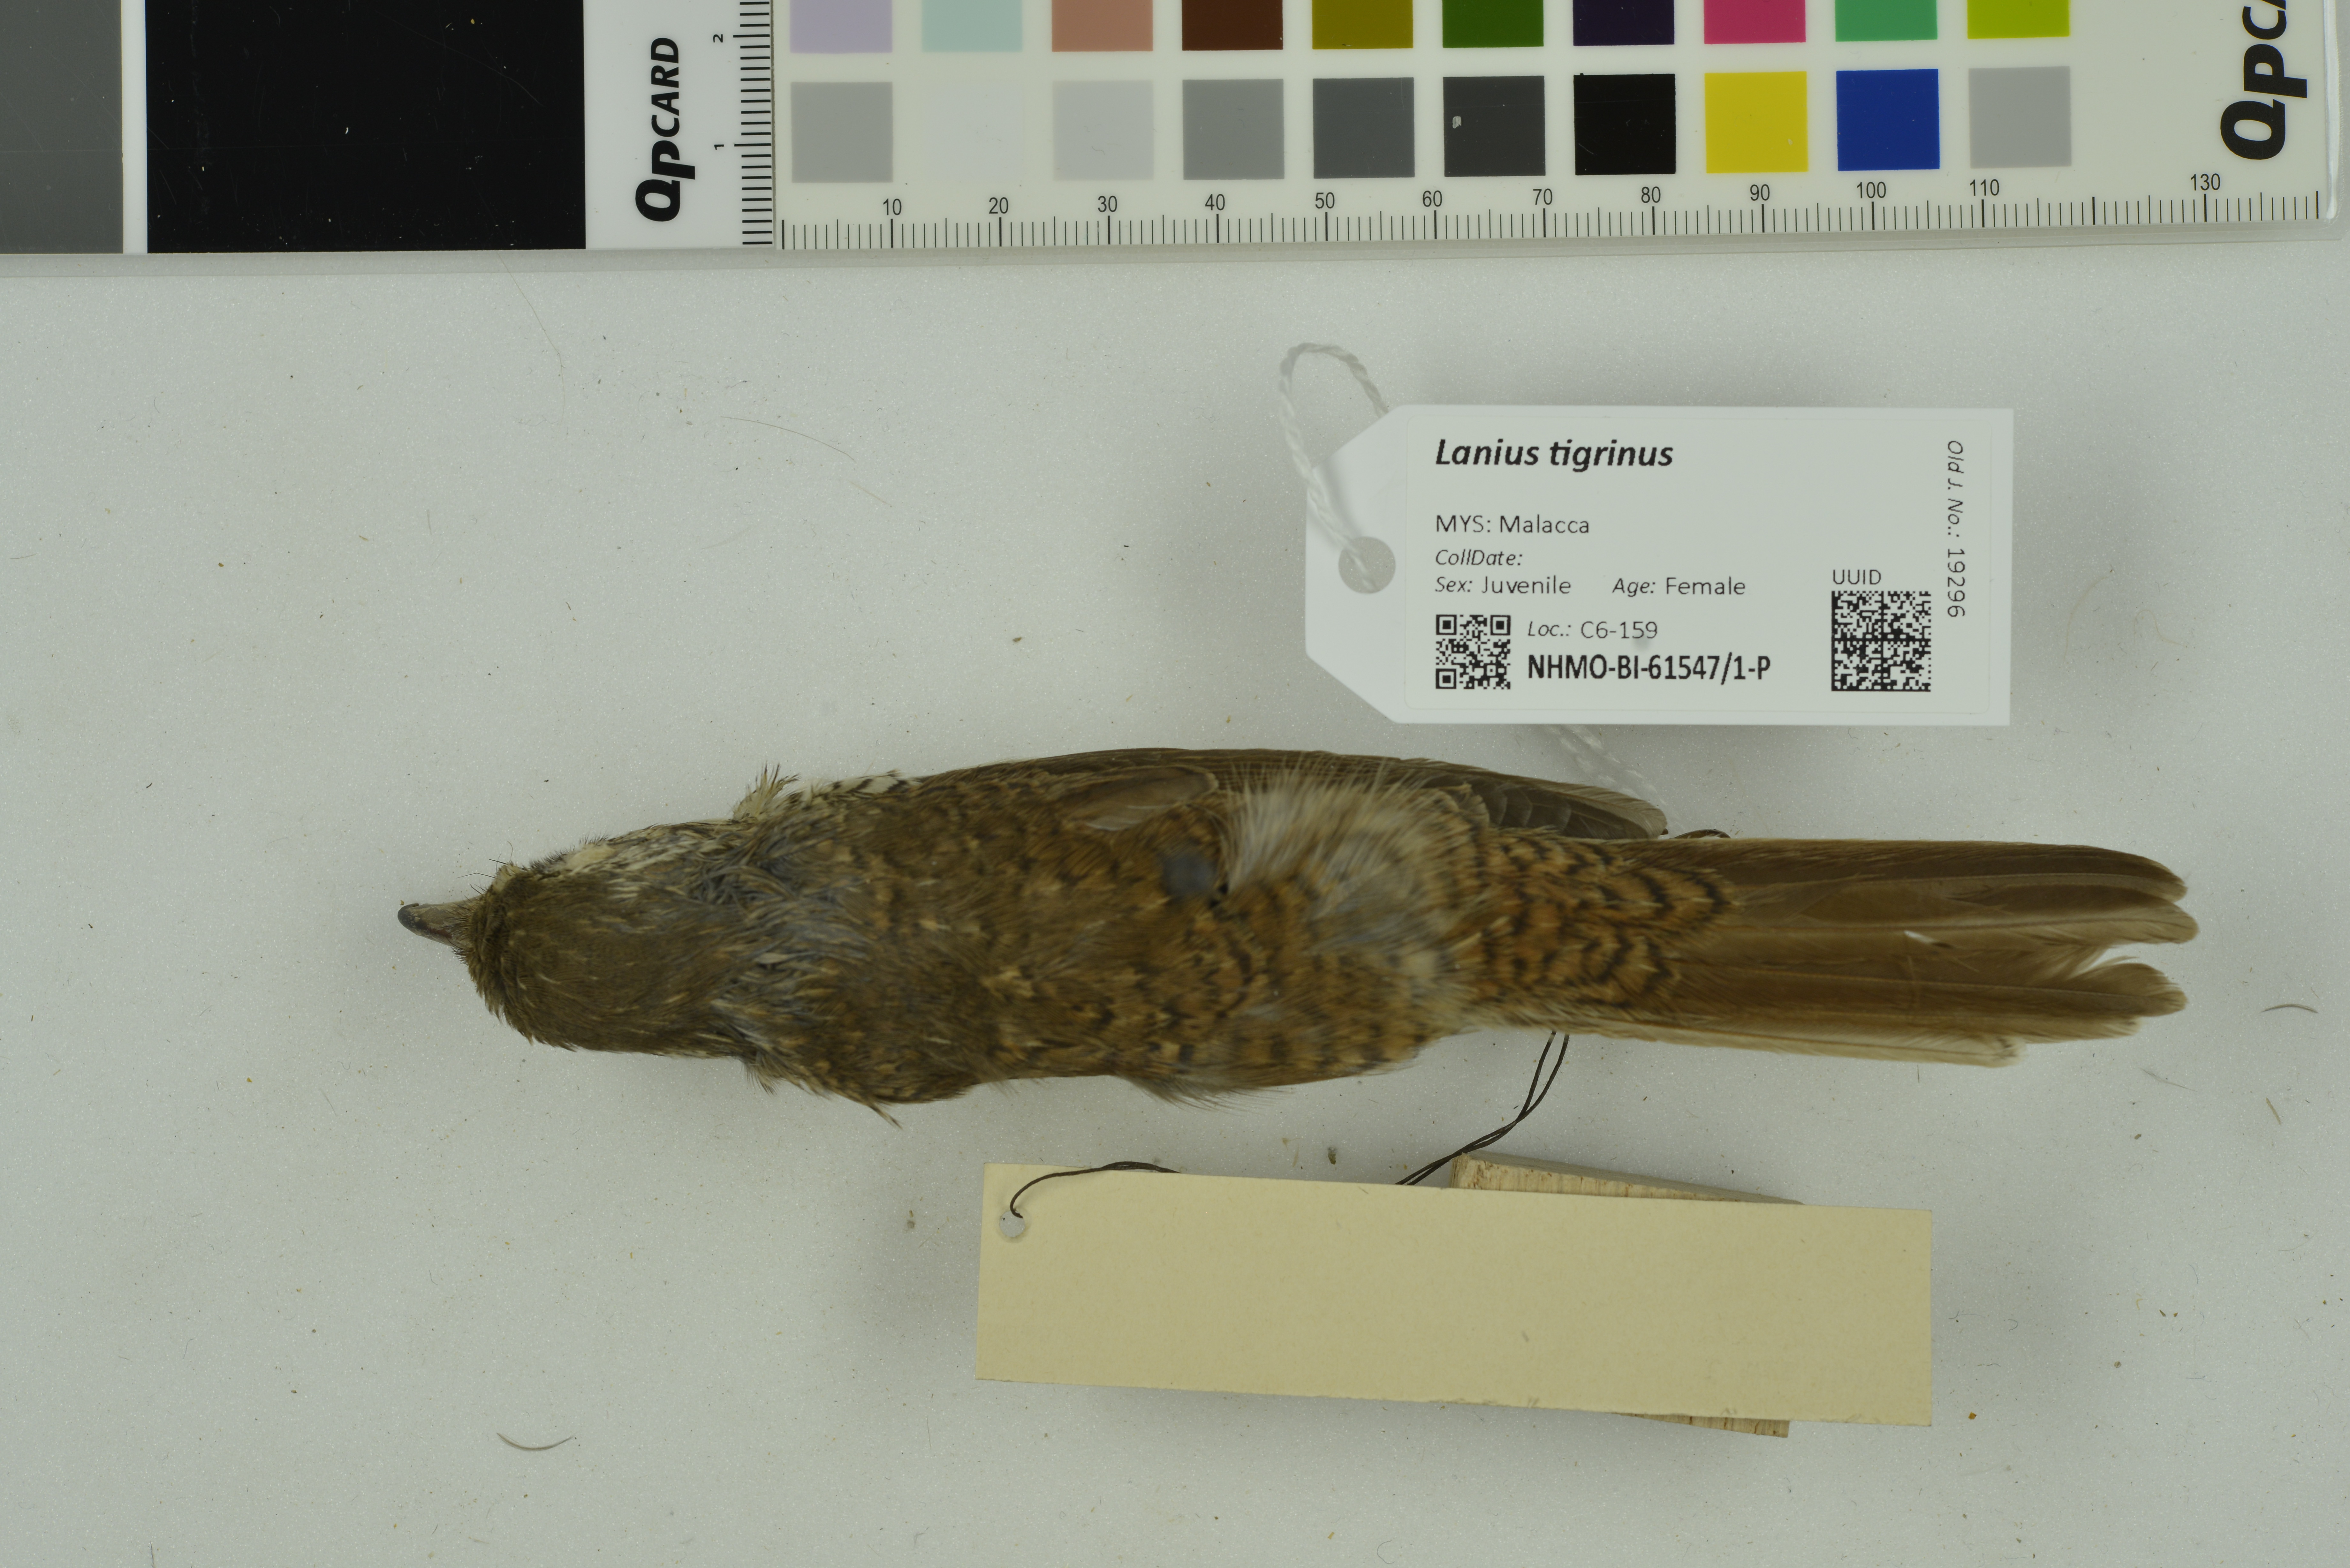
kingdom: Animalia
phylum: Chordata
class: Aves
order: Passeriformes
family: Laniidae
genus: Lanius
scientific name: Lanius tigrinus
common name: Tiger shrike
